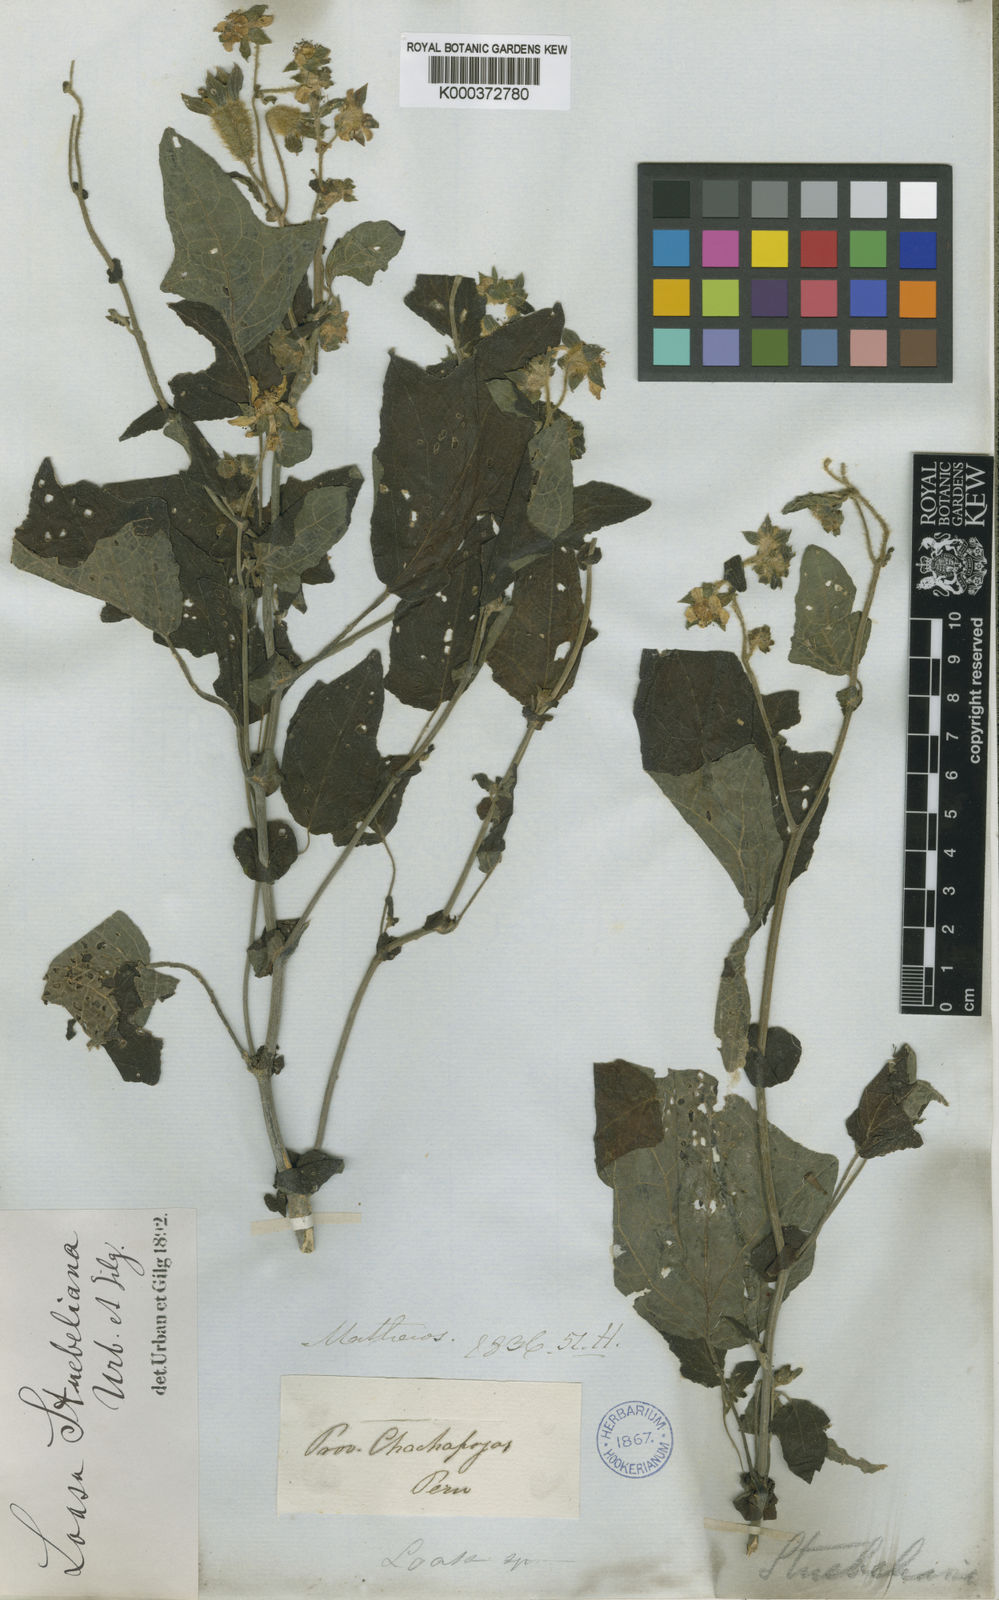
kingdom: Plantae
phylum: Tracheophyta
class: Magnoliopsida
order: Cornales
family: Loasaceae
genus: Nasa
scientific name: Nasa stuebeliana
